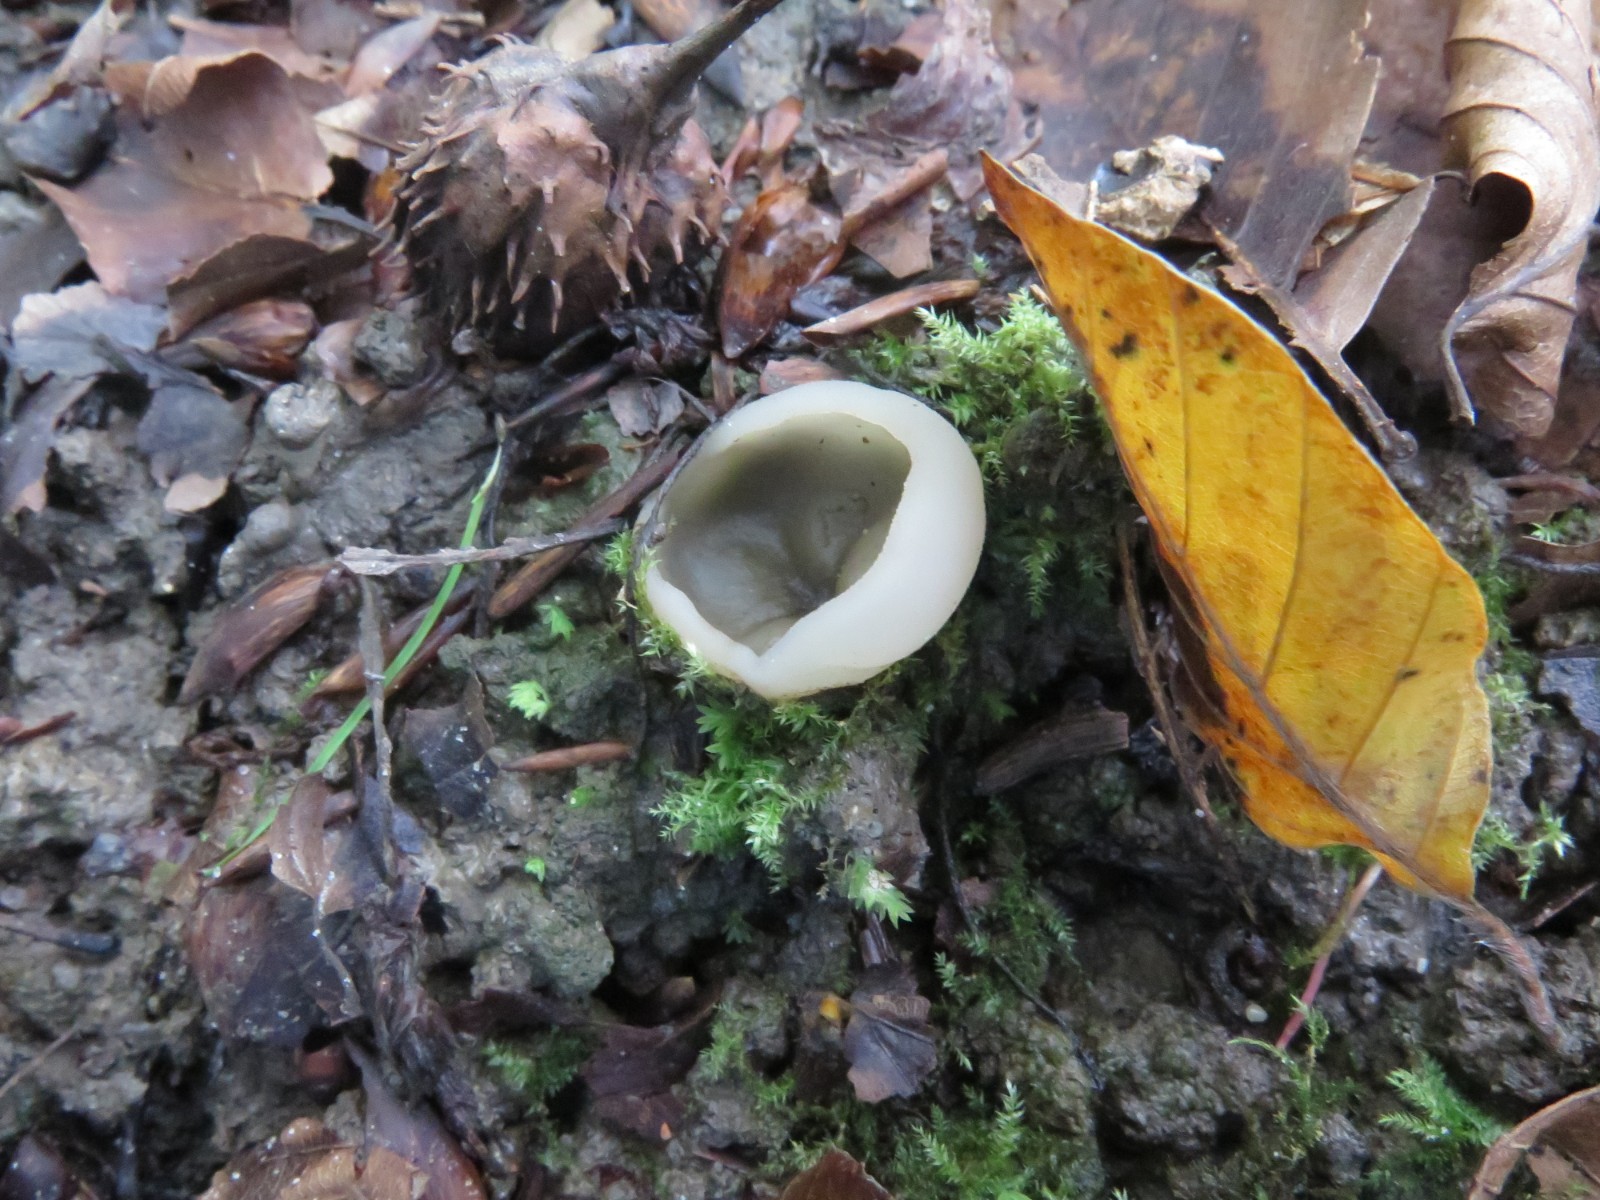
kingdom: Fungi
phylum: Ascomycota
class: Pezizomycetes
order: Pezizales
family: Pezizaceae
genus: Paragalactinia
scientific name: Paragalactinia succosella
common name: gulnende bægersvamp
